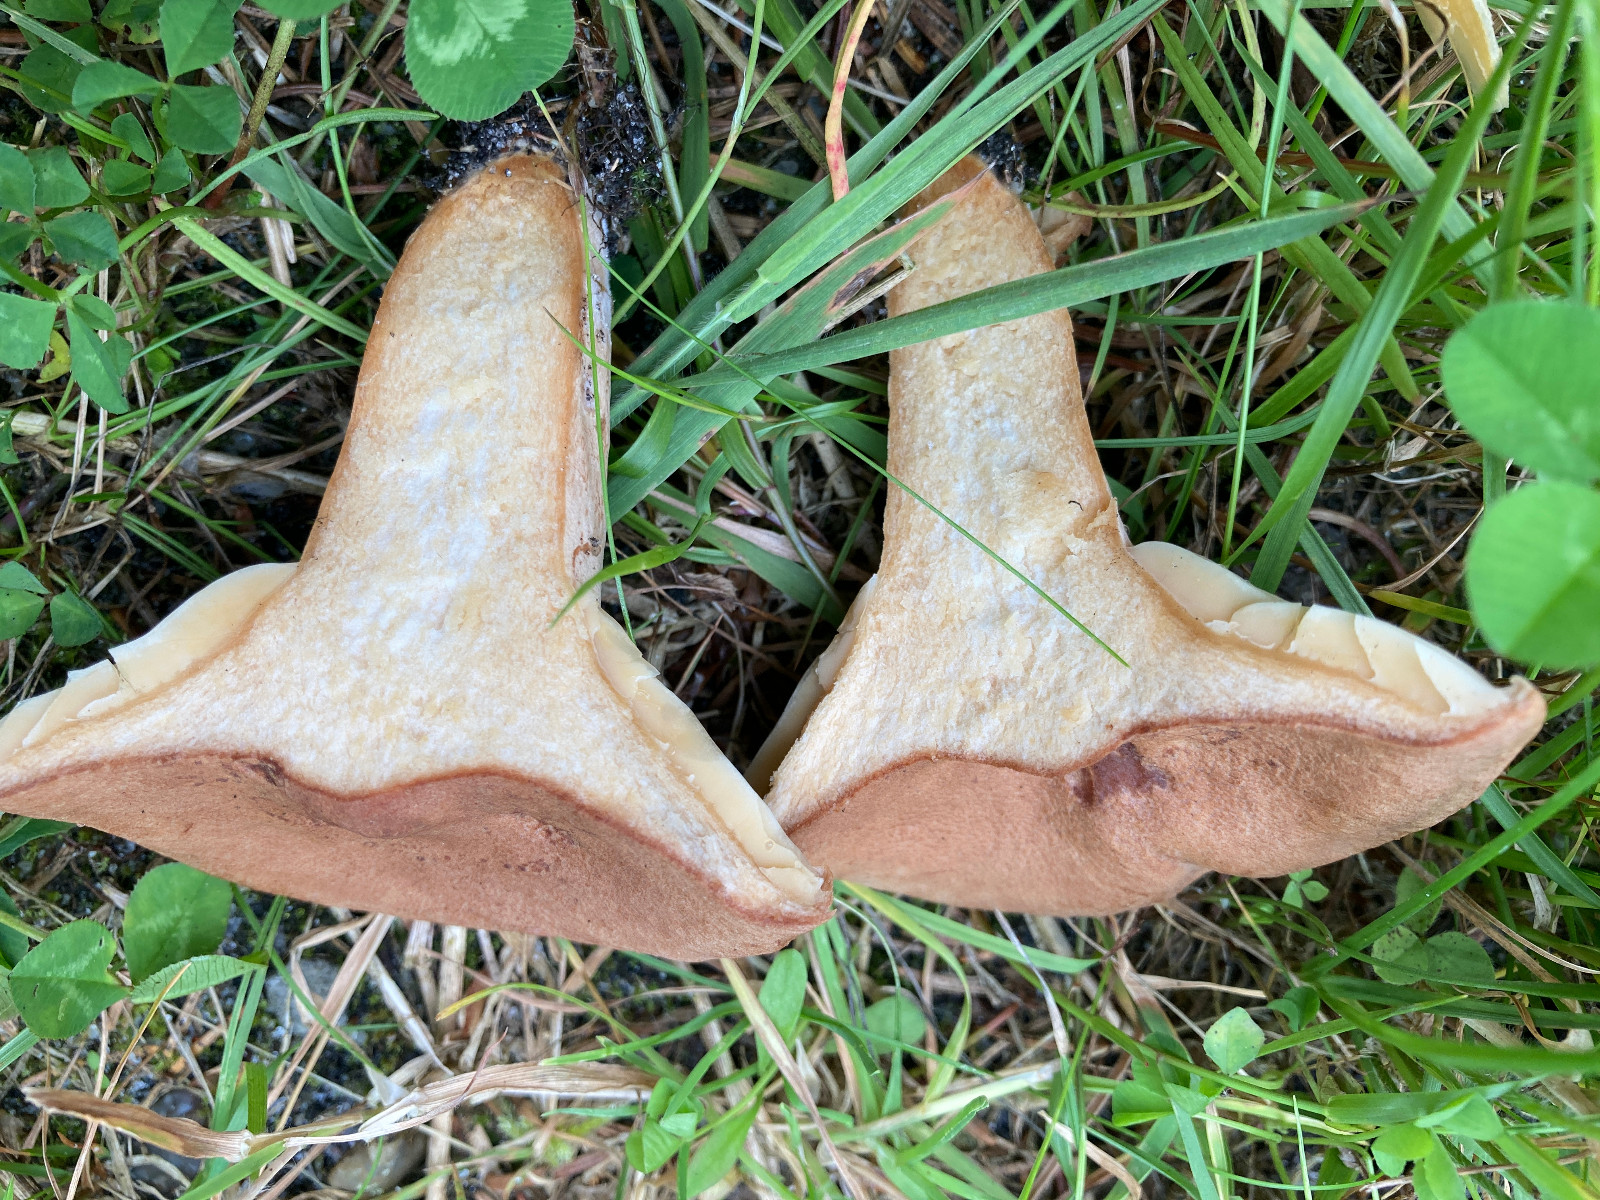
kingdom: Fungi
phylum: Basidiomycota
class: Agaricomycetes
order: Russulales
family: Russulaceae
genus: Lactarius
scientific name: Lactarius helvus
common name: mose-mælkehat
